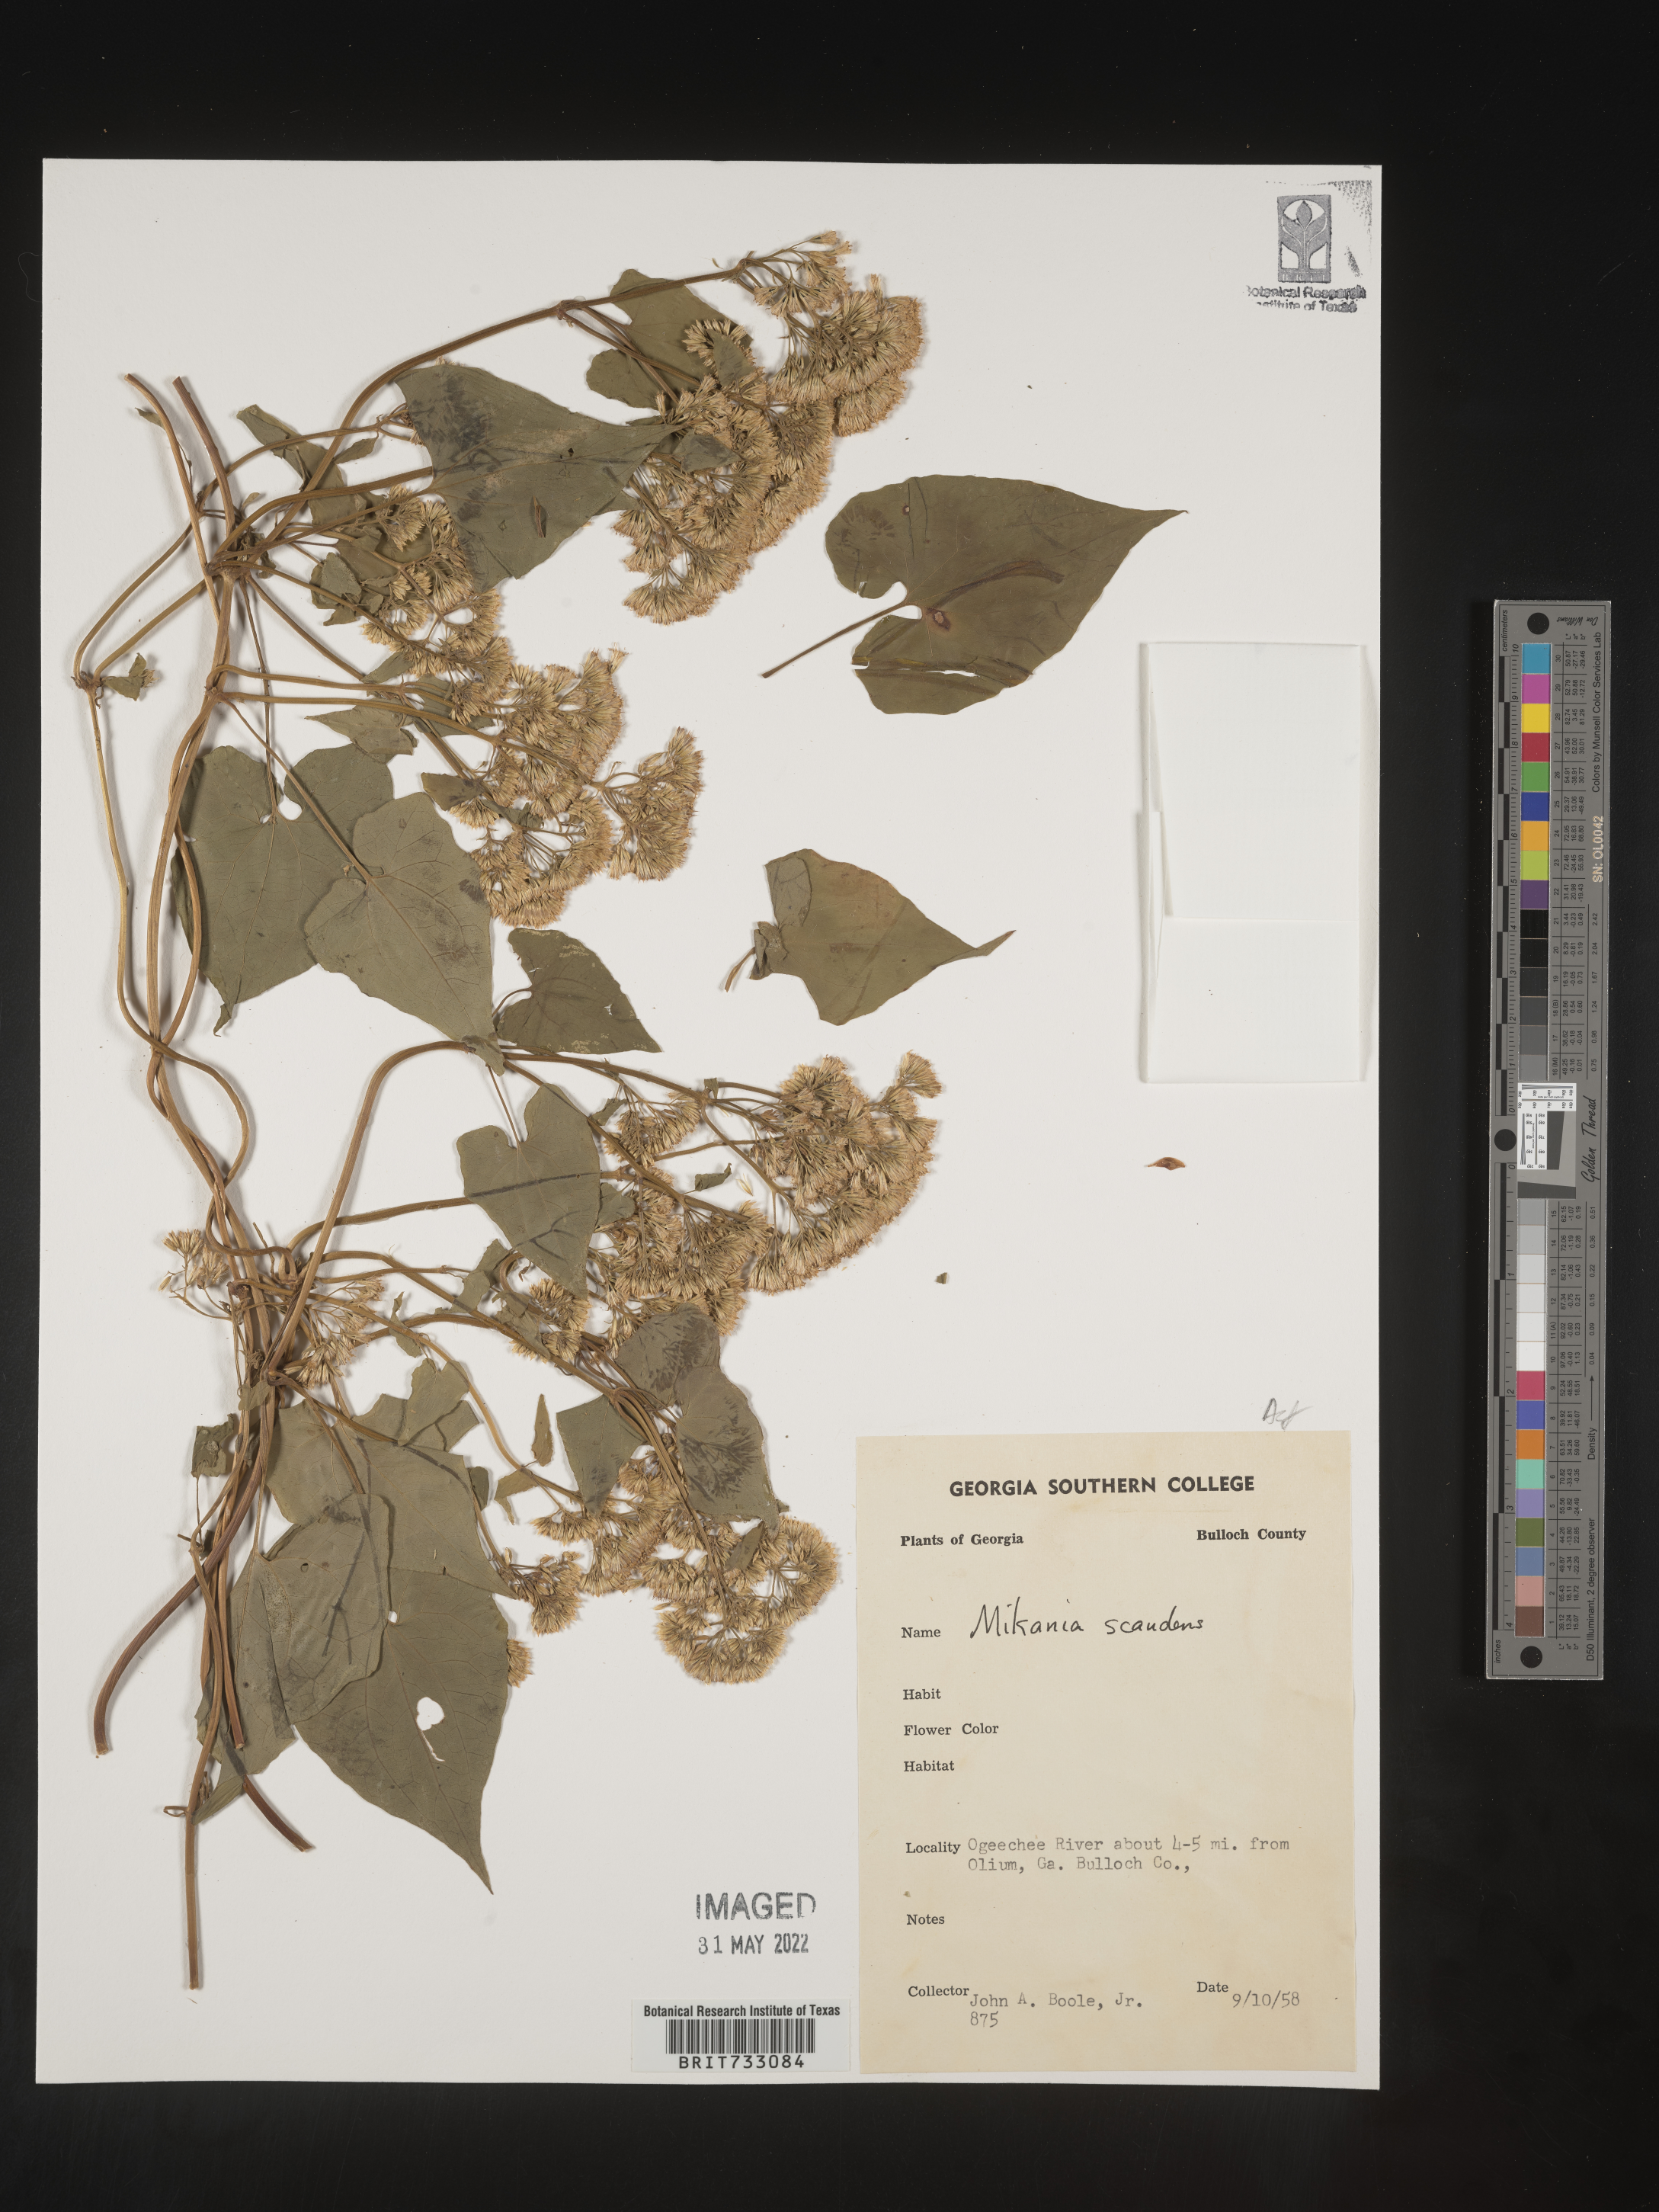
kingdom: Plantae
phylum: Tracheophyta
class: Magnoliopsida
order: Asterales
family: Asteraceae
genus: Mikania
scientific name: Mikania scandens
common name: Climbing hempvine
